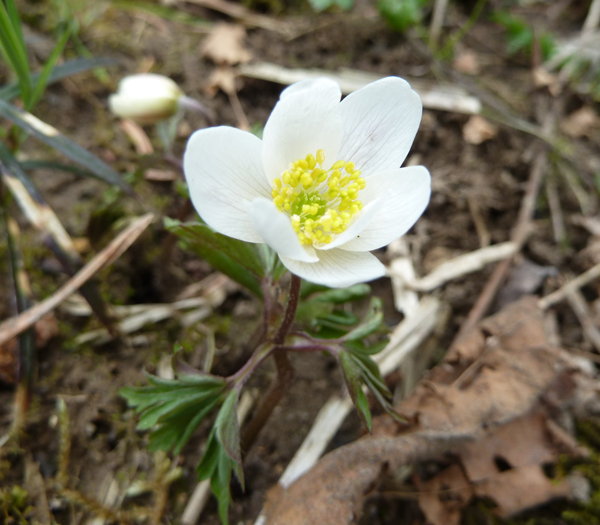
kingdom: Plantae
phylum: Tracheophyta
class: Magnoliopsida
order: Ranunculales
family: Ranunculaceae
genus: Anemone
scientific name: Anemone nemorosa
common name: Wood anemone
